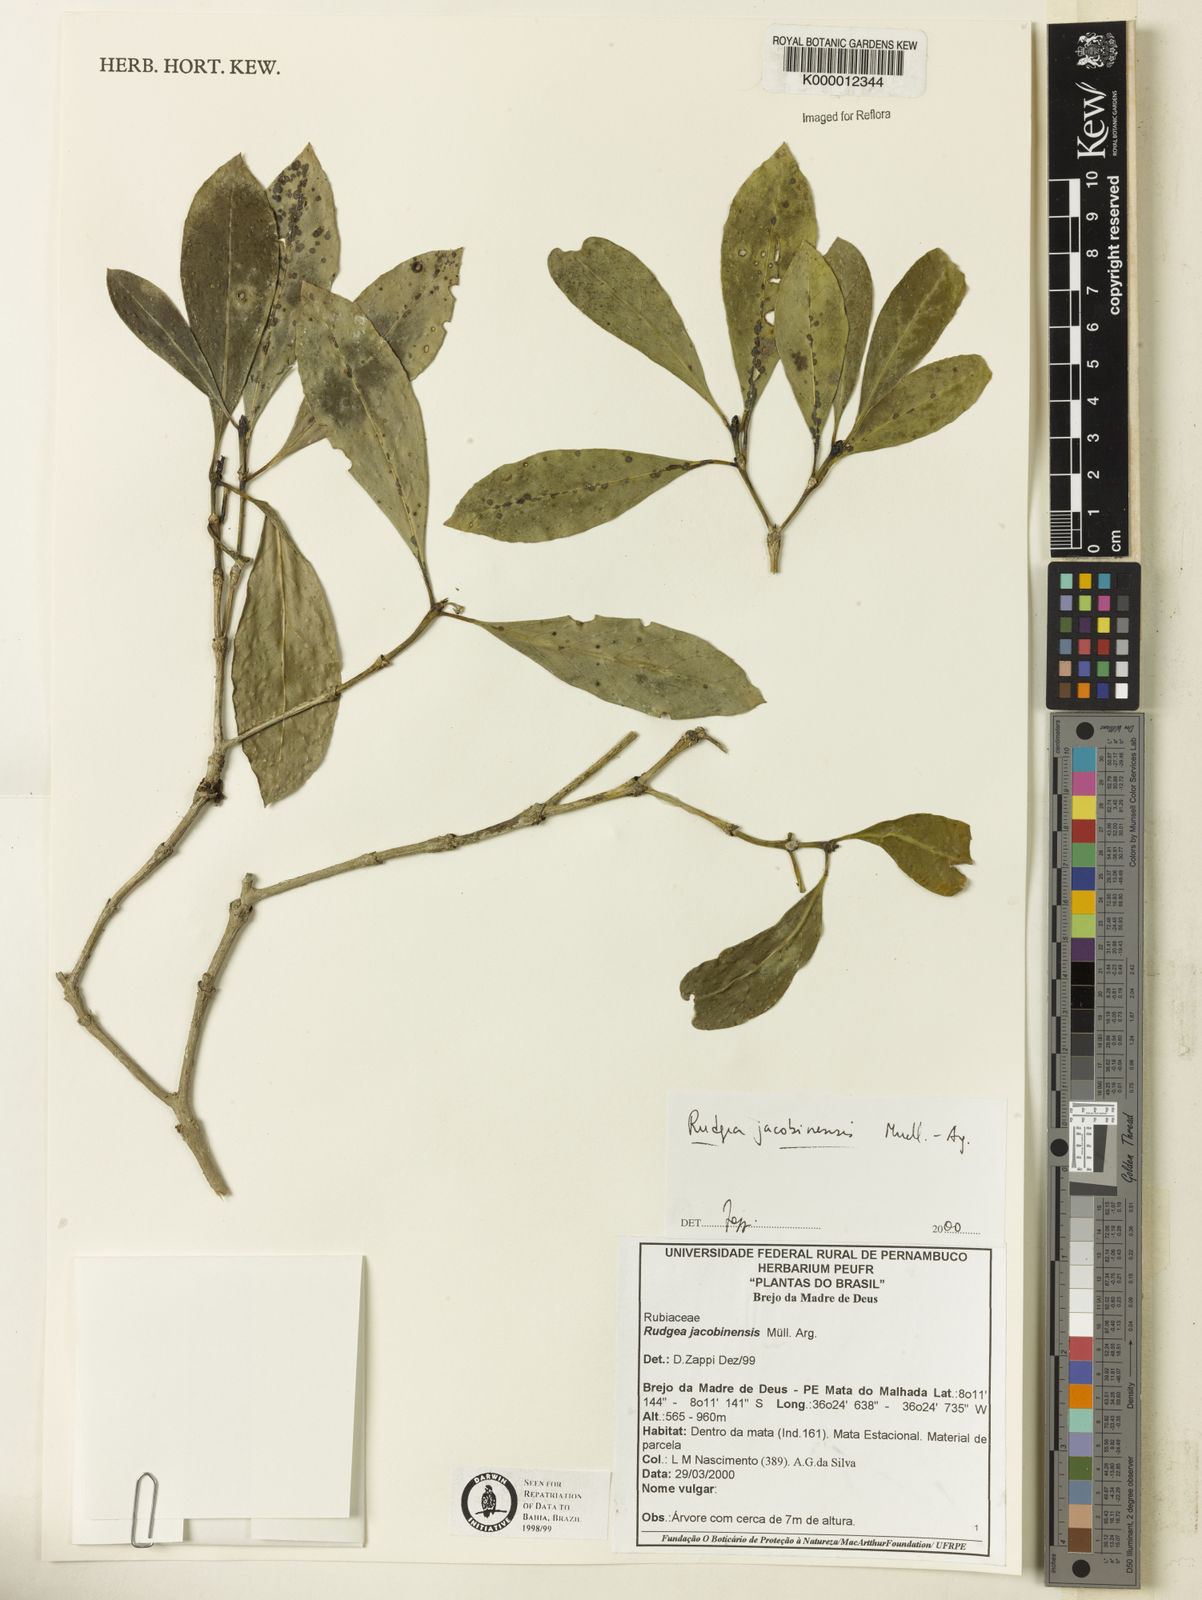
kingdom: Plantae
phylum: Tracheophyta
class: Magnoliopsida
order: Gentianales
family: Rubiaceae
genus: Rudgea
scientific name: Rudgea erioloba
